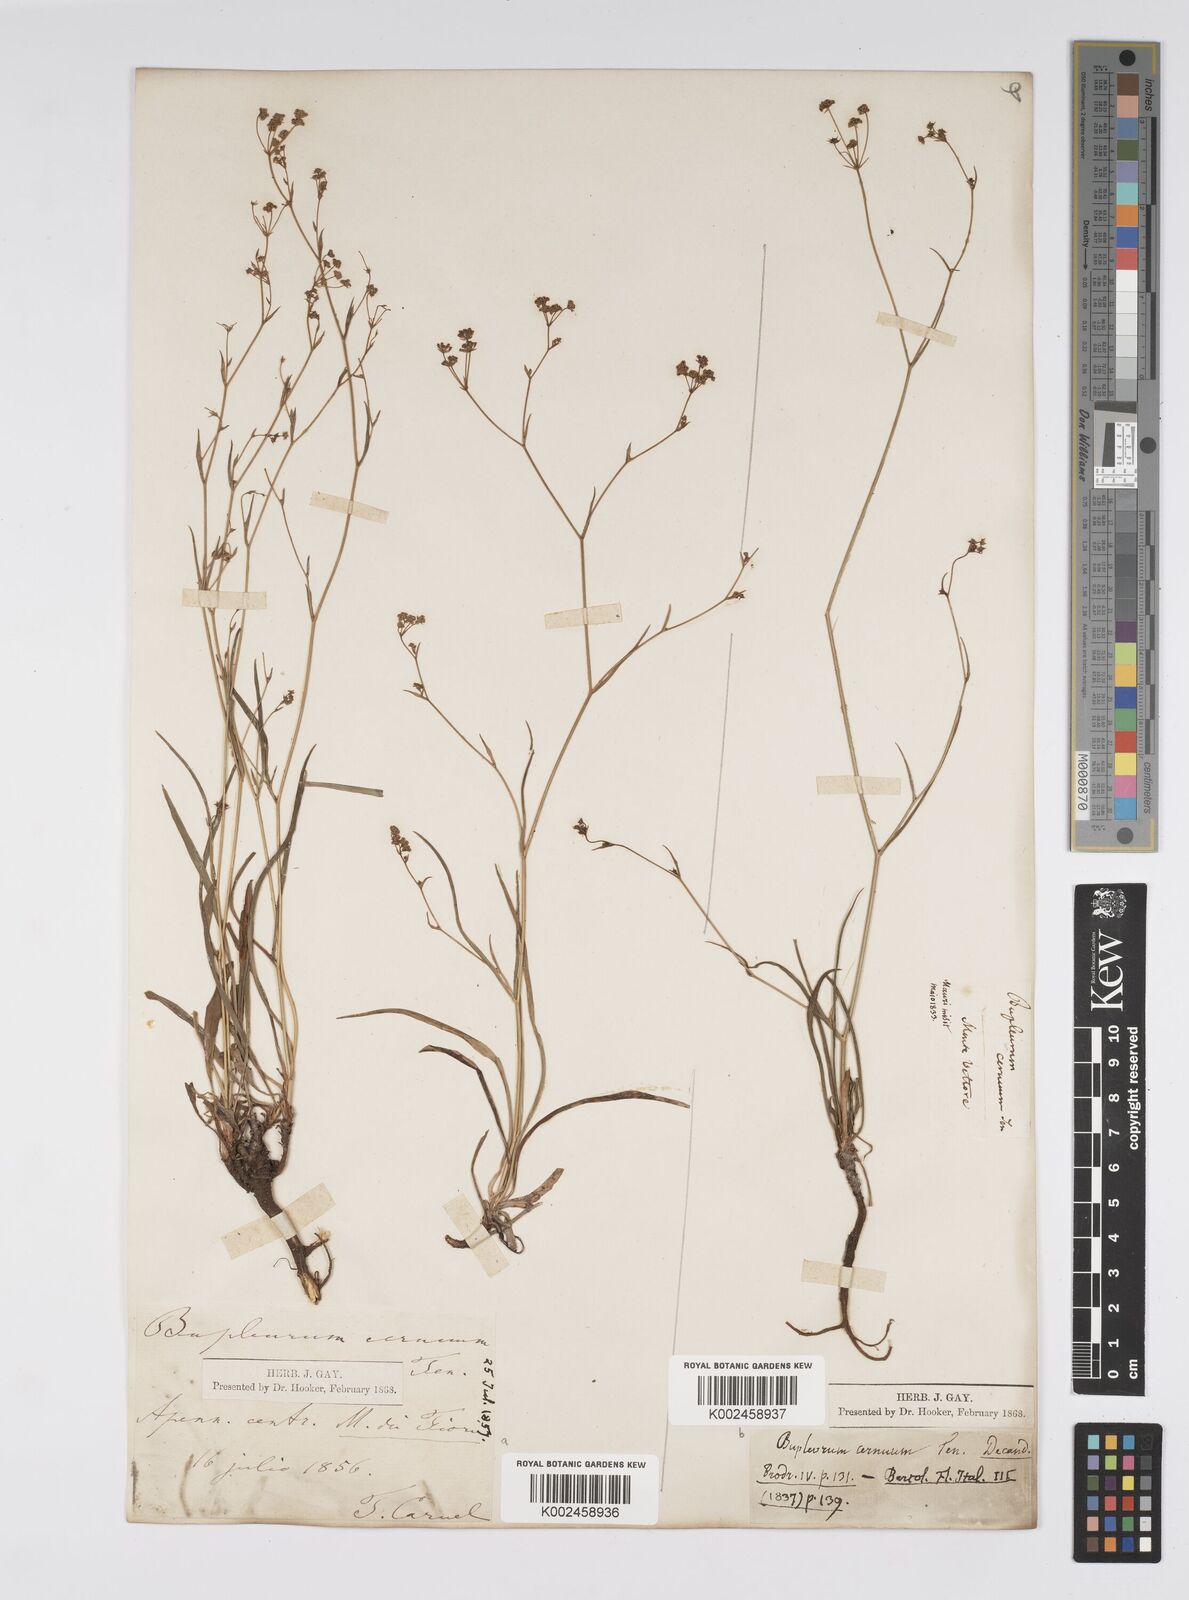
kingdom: Plantae
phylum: Tracheophyta
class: Magnoliopsida
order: Apiales
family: Apiaceae
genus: Bupleurum
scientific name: Bupleurum falcatum
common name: Sickle-leaved hare's-ear
